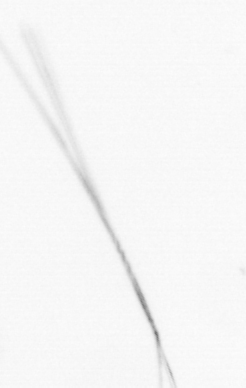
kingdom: Chromista
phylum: Ochrophyta
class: Bacillariophyceae
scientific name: Bacillariophyceae
